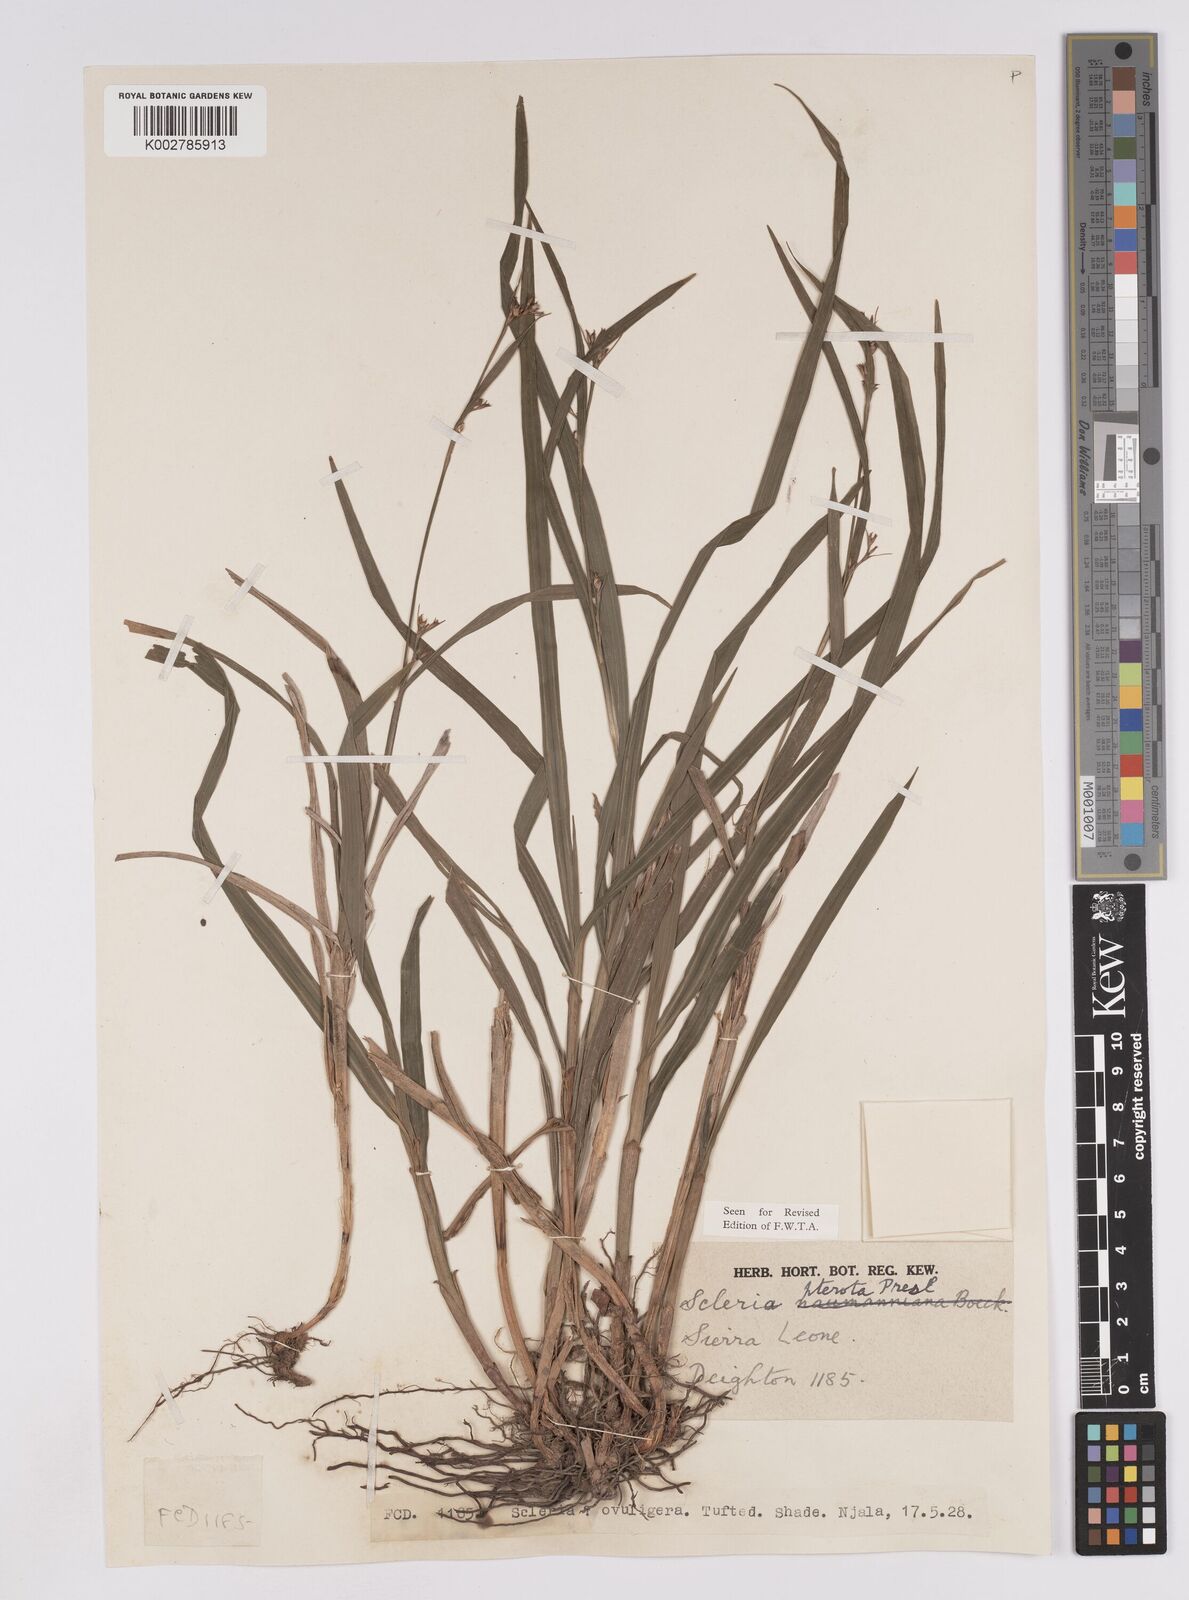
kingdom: Plantae
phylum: Tracheophyta
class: Liliopsida
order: Poales
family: Cyperaceae
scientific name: Cyperaceae
